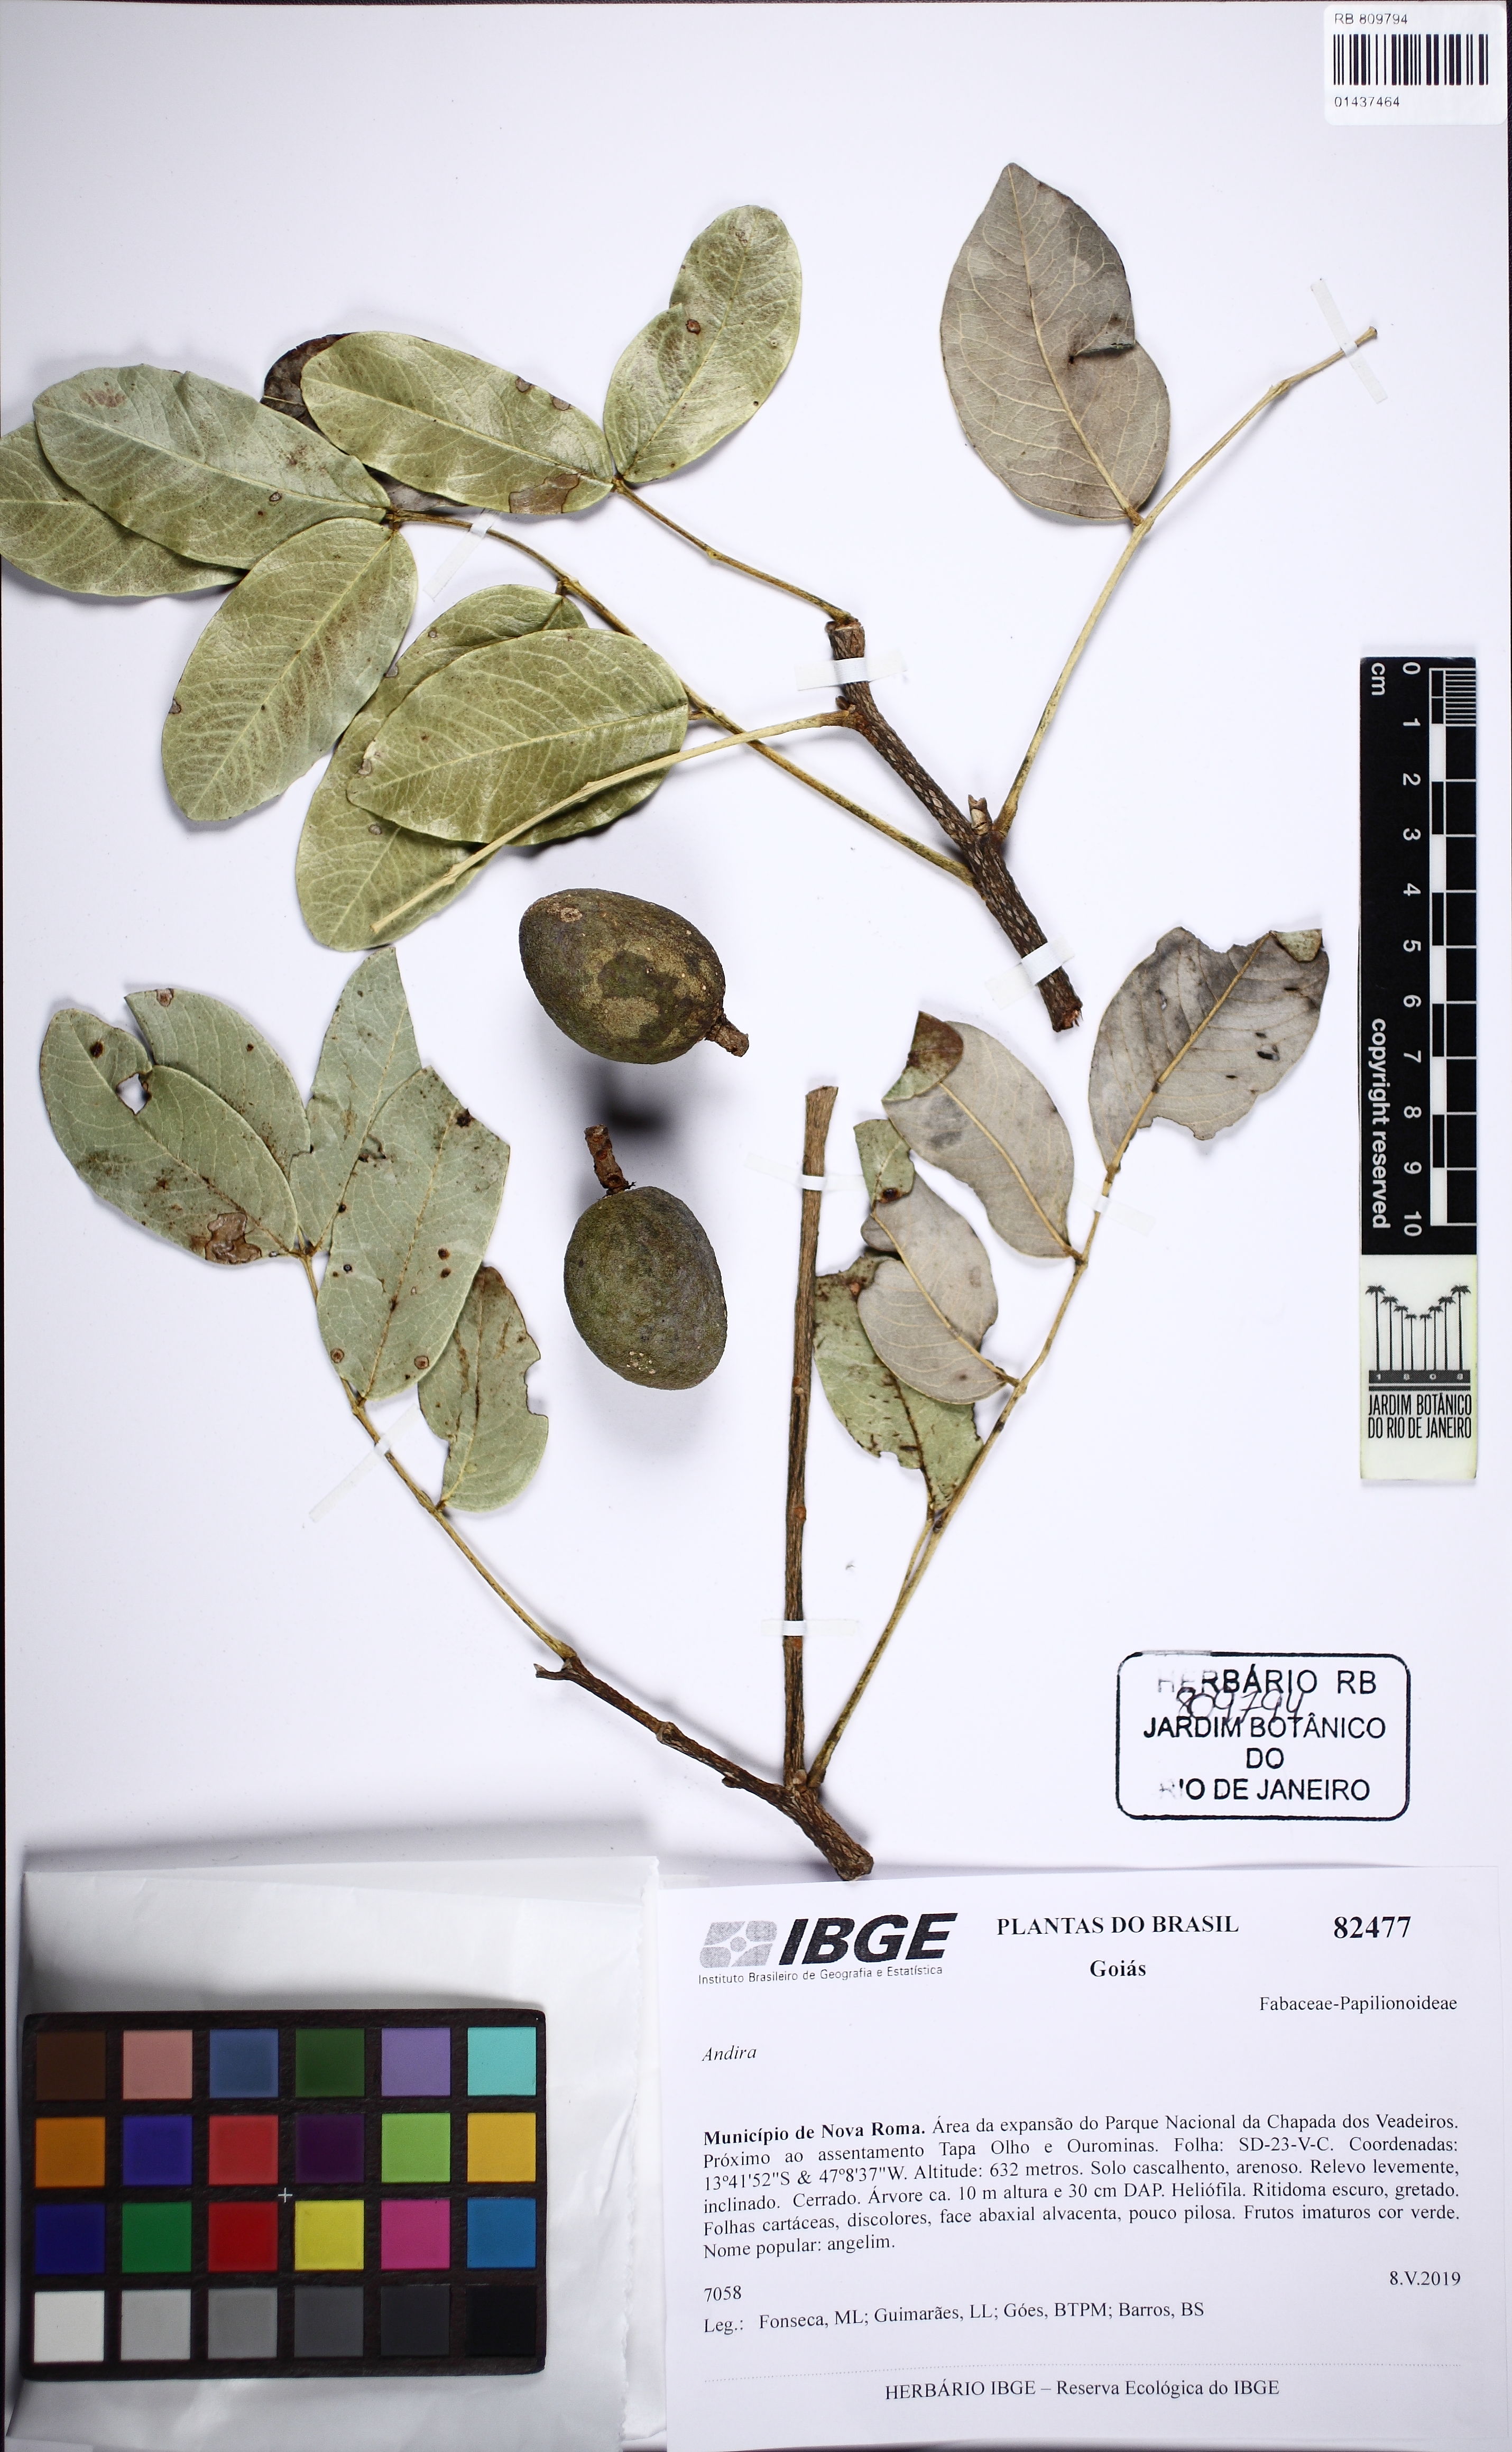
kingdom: Plantae
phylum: Tracheophyta
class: Magnoliopsida
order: Fabales
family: Fabaceae
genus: Andira
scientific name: Andira
